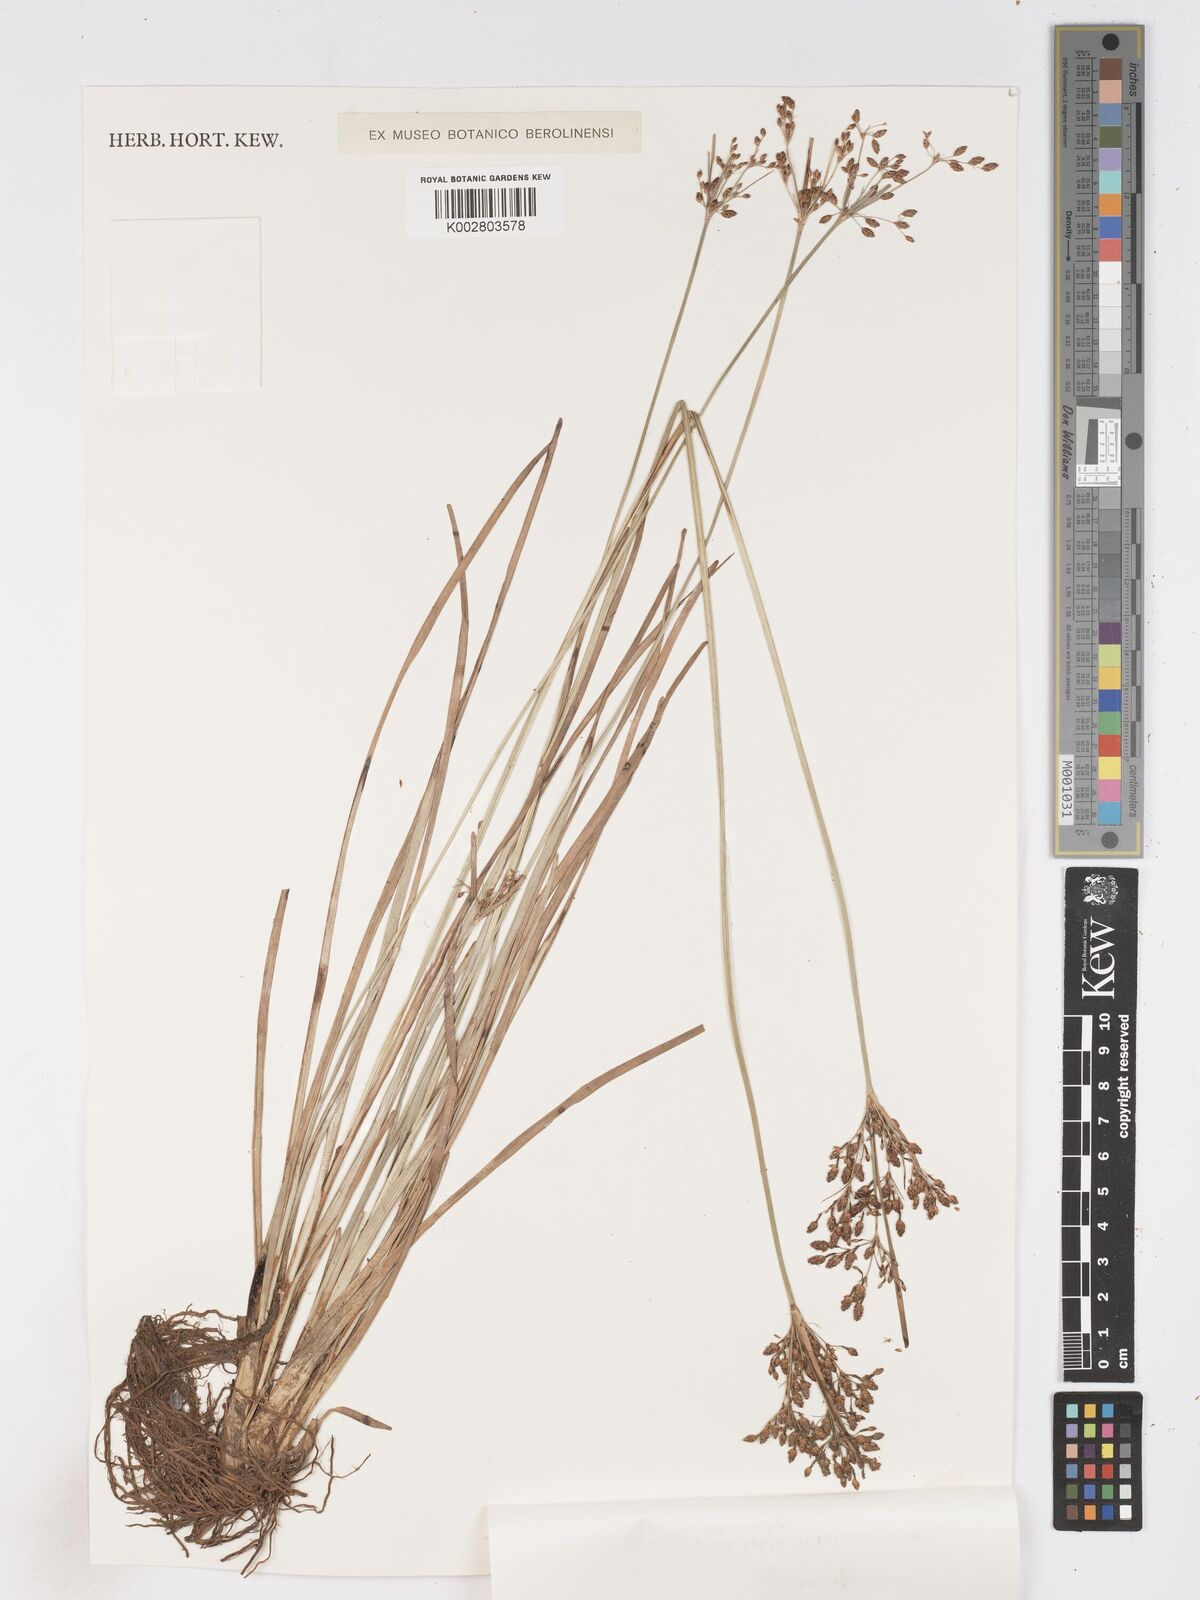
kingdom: Plantae
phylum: Tracheophyta
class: Liliopsida
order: Poales
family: Cyperaceae
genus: Fimbristylis
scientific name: Fimbristylis dichotoma
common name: Forked fimbry
